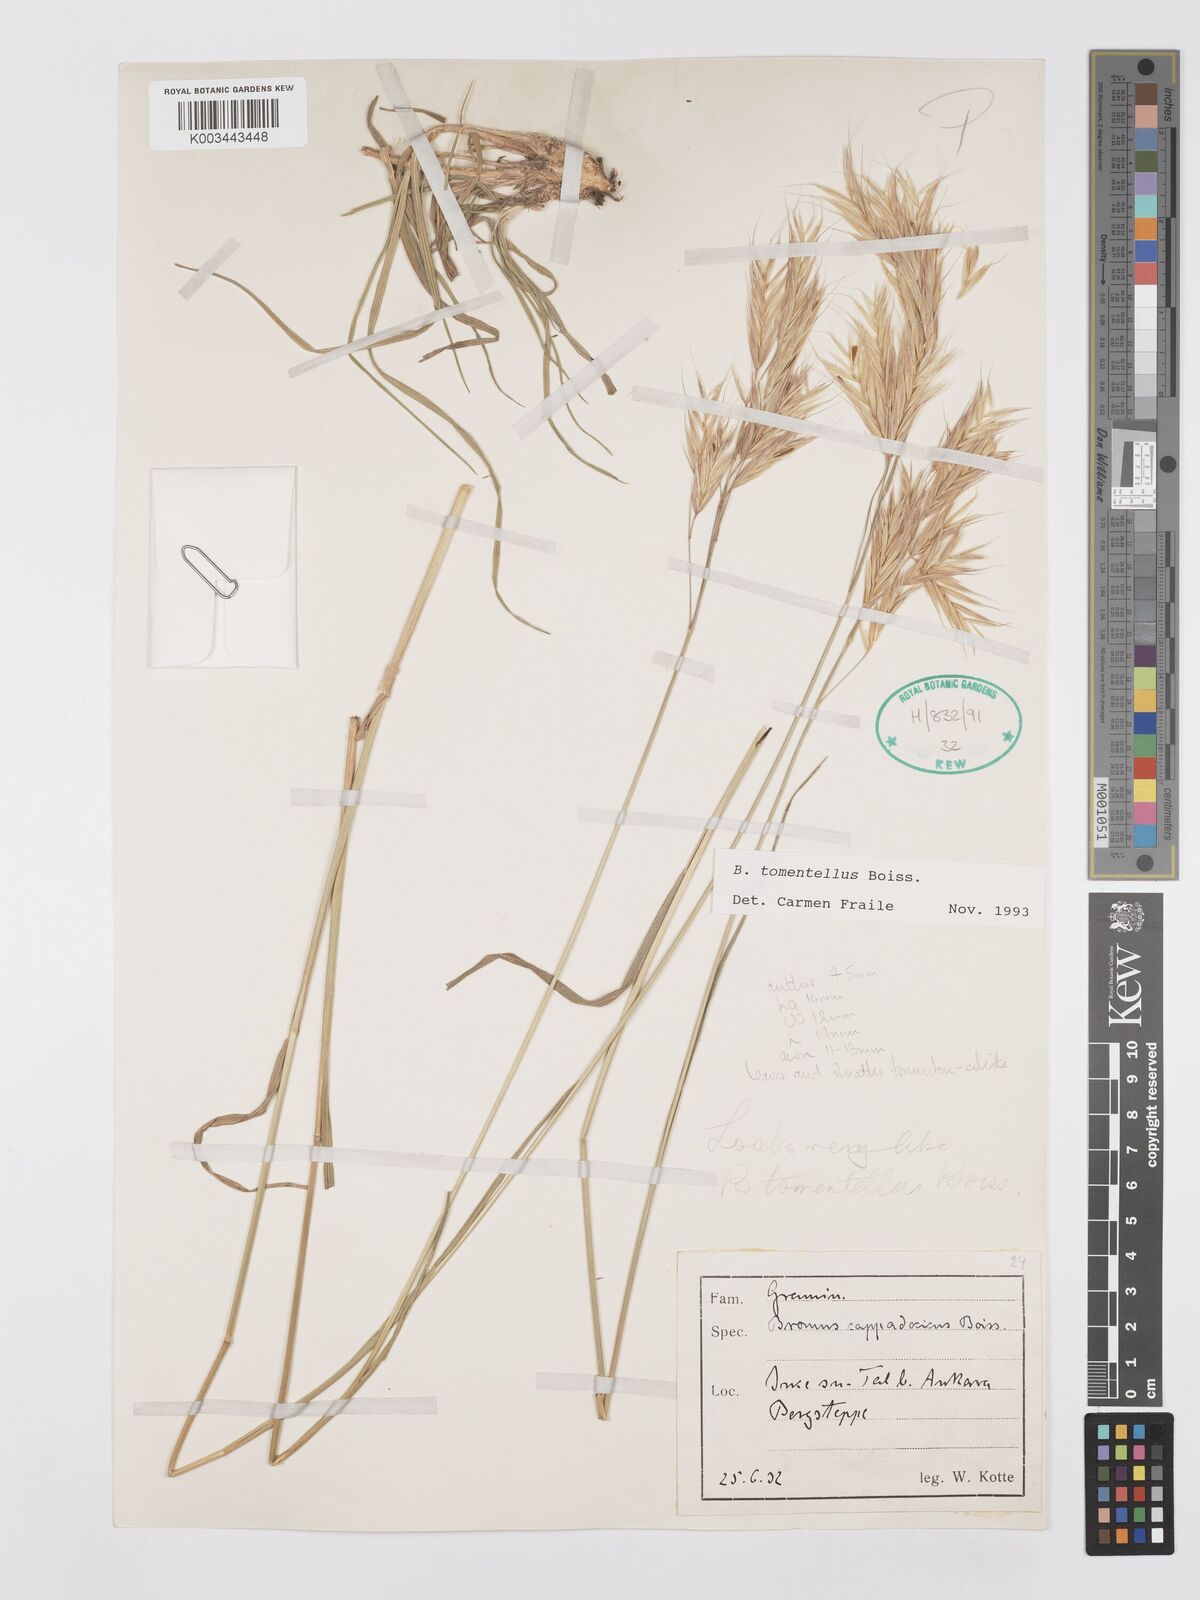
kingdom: Plantae
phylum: Tracheophyta
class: Liliopsida
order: Poales
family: Poaceae
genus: Bromus
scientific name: Bromus tomentellus
